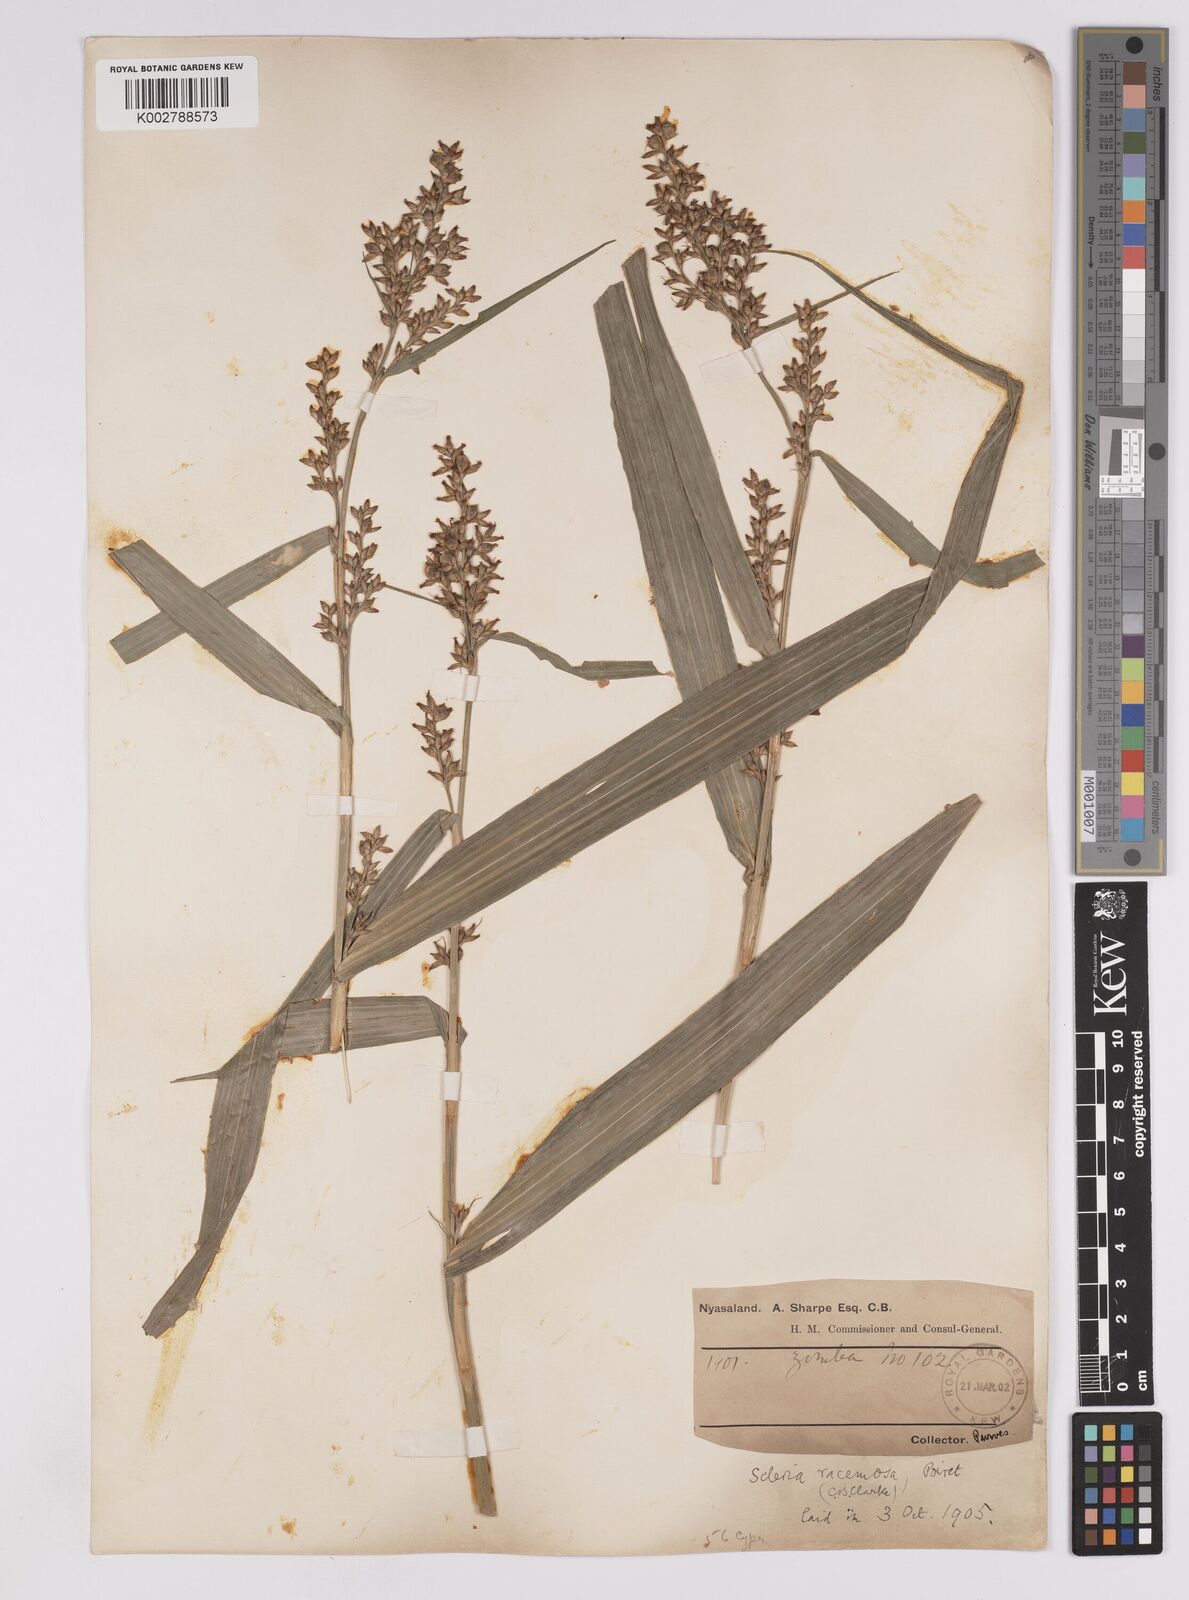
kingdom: Plantae
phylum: Tracheophyta
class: Liliopsida
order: Poales
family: Cyperaceae
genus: Scleria
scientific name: Scleria racemosa
